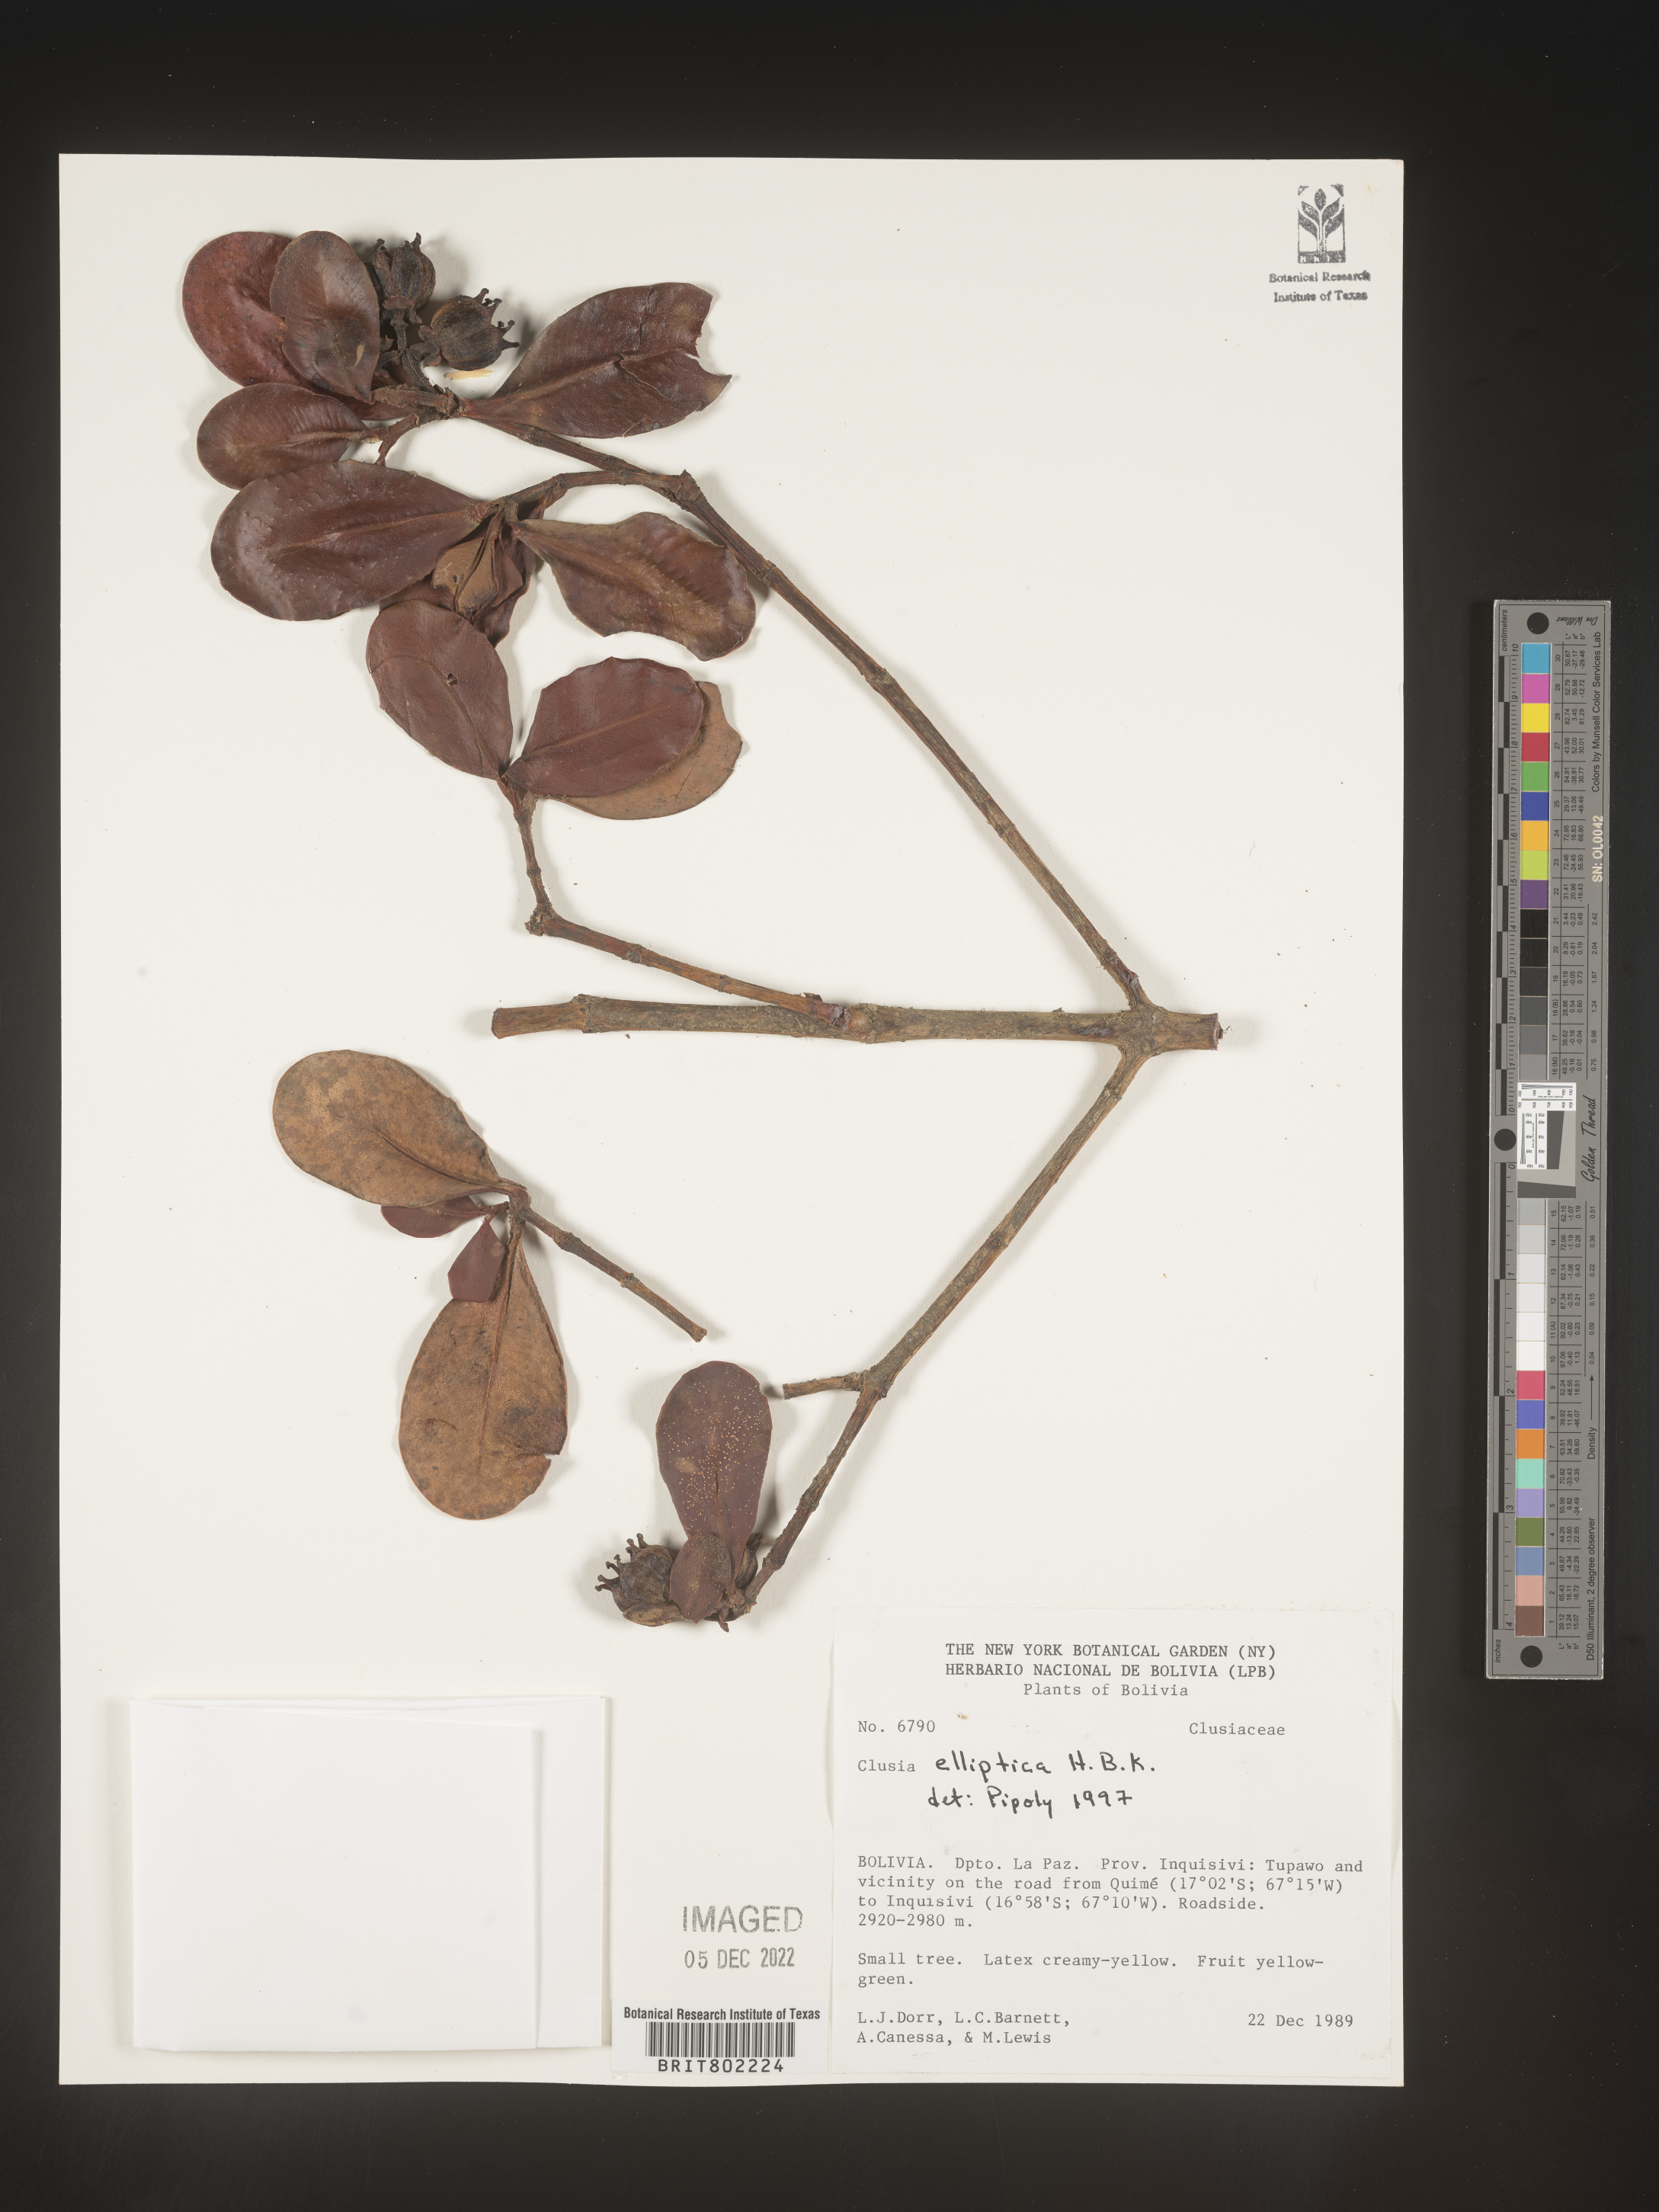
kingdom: Plantae
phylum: Tracheophyta
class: Magnoliopsida
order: Malpighiales
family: Clusiaceae
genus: Clusia
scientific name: Clusia elliptica
